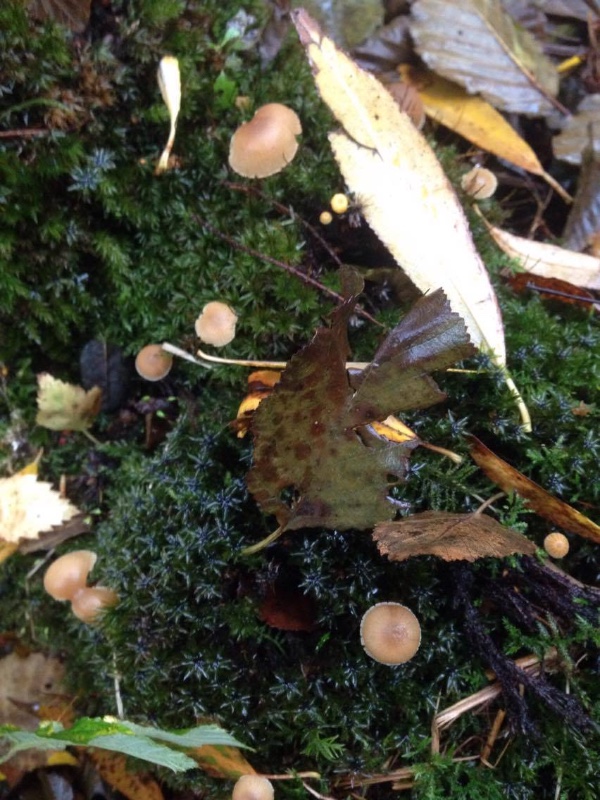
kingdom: Fungi
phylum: Basidiomycota
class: Agaricomycetes
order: Agaricales
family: Hymenogastraceae
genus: Naucoria
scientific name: Naucoria escharioides
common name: lys elle-knaphat
